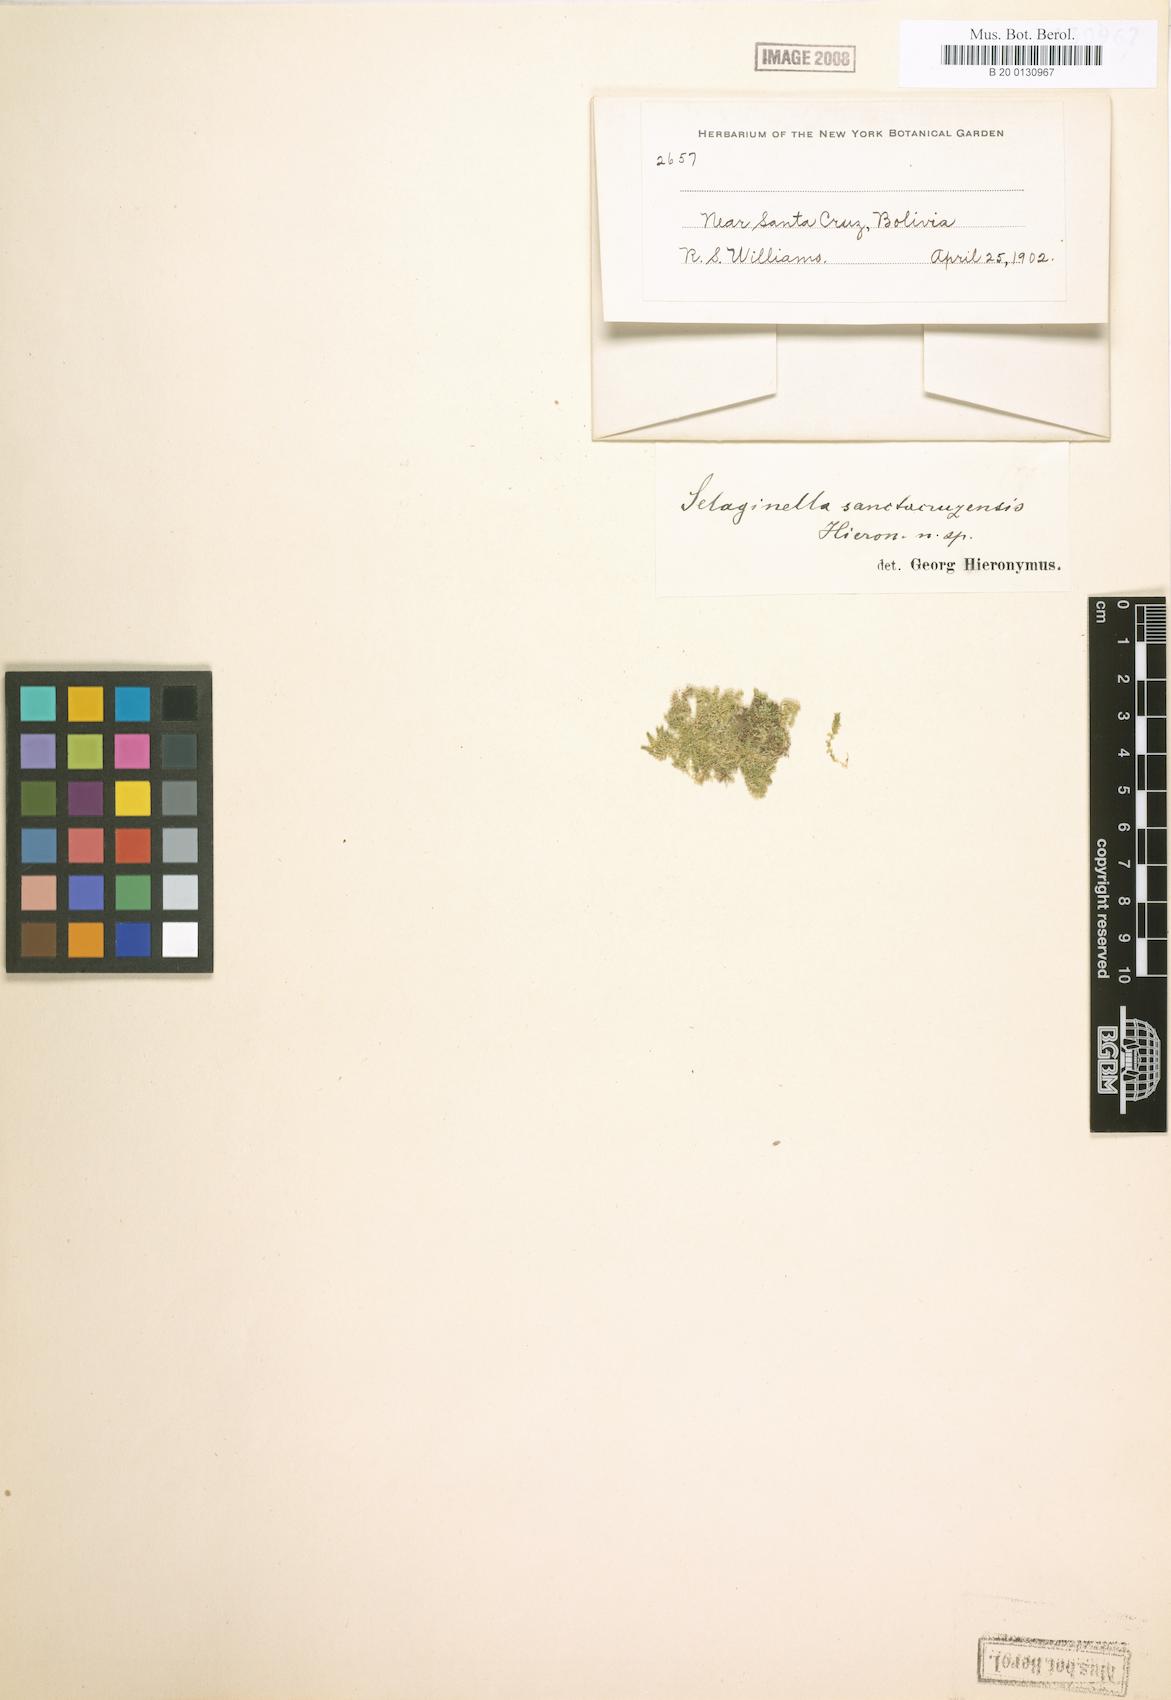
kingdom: Plantae
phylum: Tracheophyta
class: Lycopodiopsida
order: Selaginellales
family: Selaginellaceae
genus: Selaginella
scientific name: Selaginella simplex
